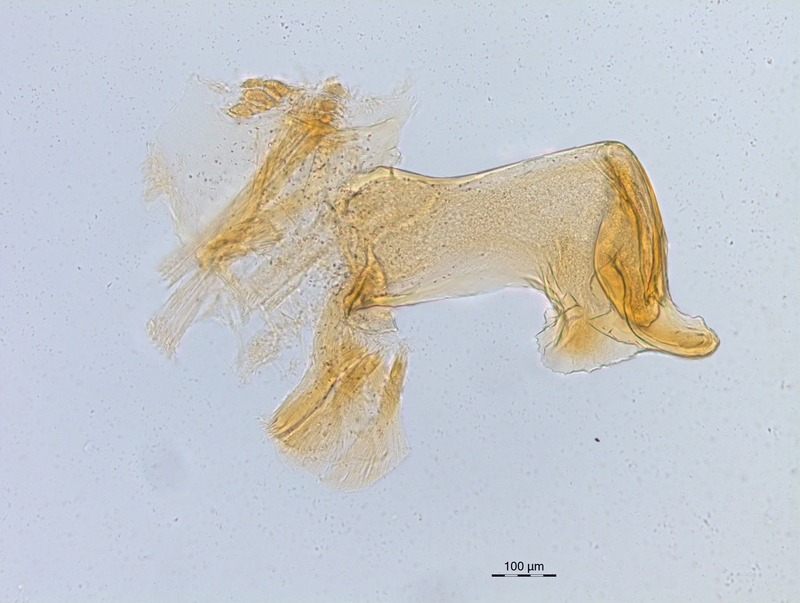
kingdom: Animalia
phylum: Arthropoda
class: Diplopoda
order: Chordeumatida
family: Craspedosomatidae
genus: Craspedosoma
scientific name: Craspedosoma rawlinsii
